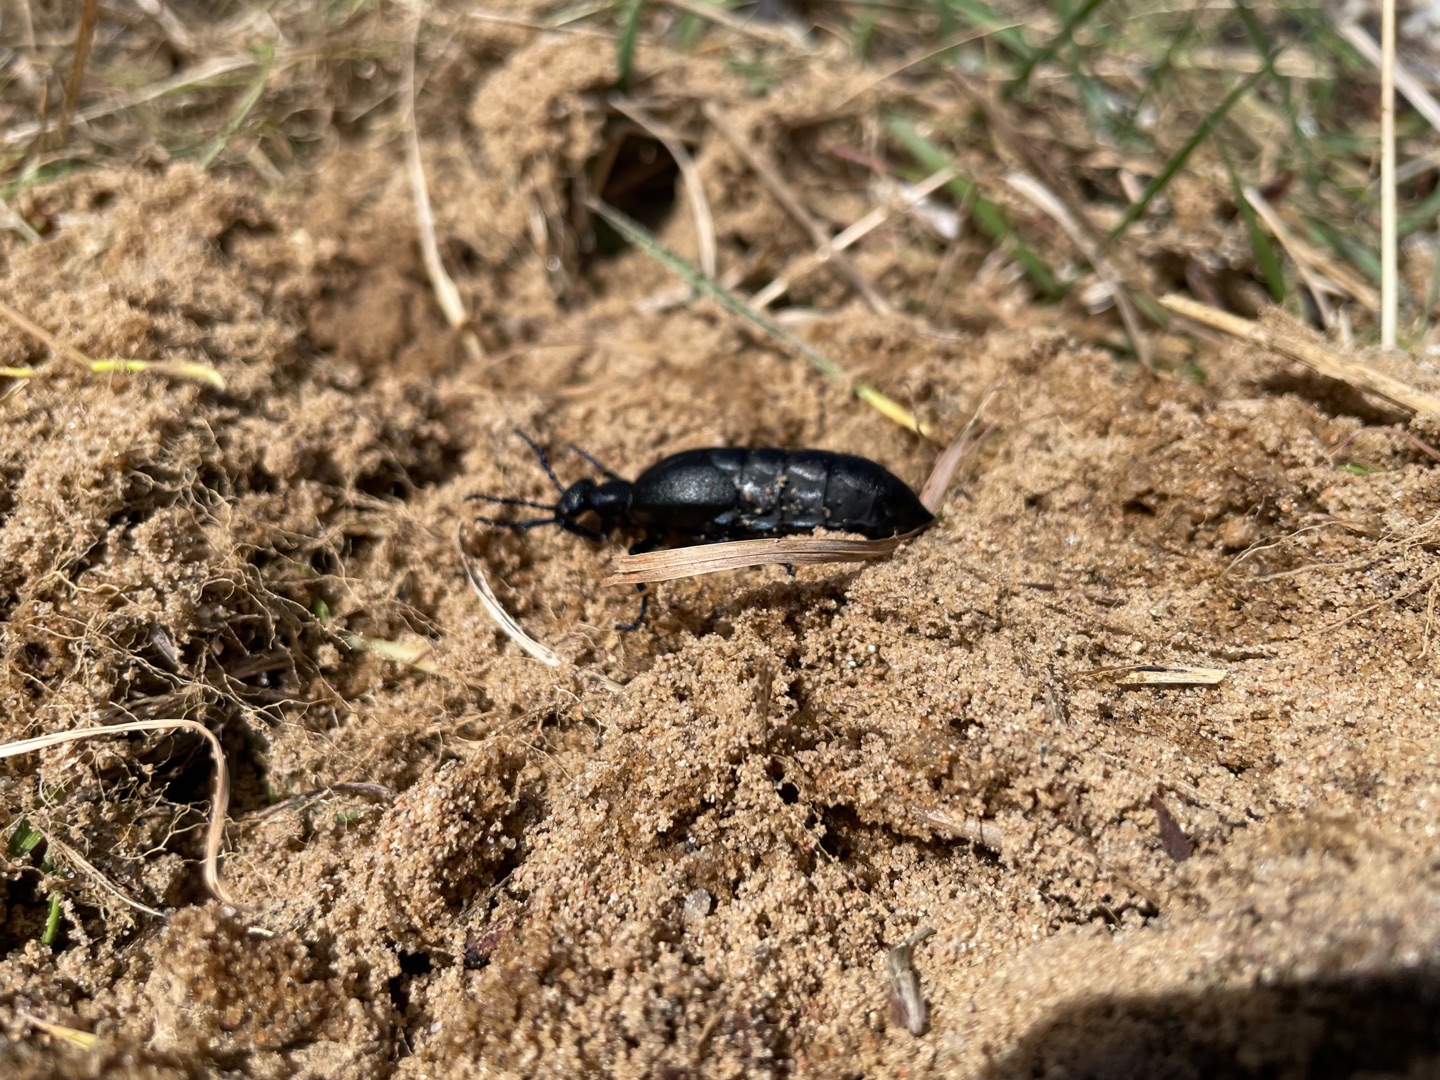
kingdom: Animalia
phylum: Arthropoda
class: Insecta
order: Coleoptera
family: Meloidae
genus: Meloe
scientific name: Meloe proscarabaeus
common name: Sort oliebille
